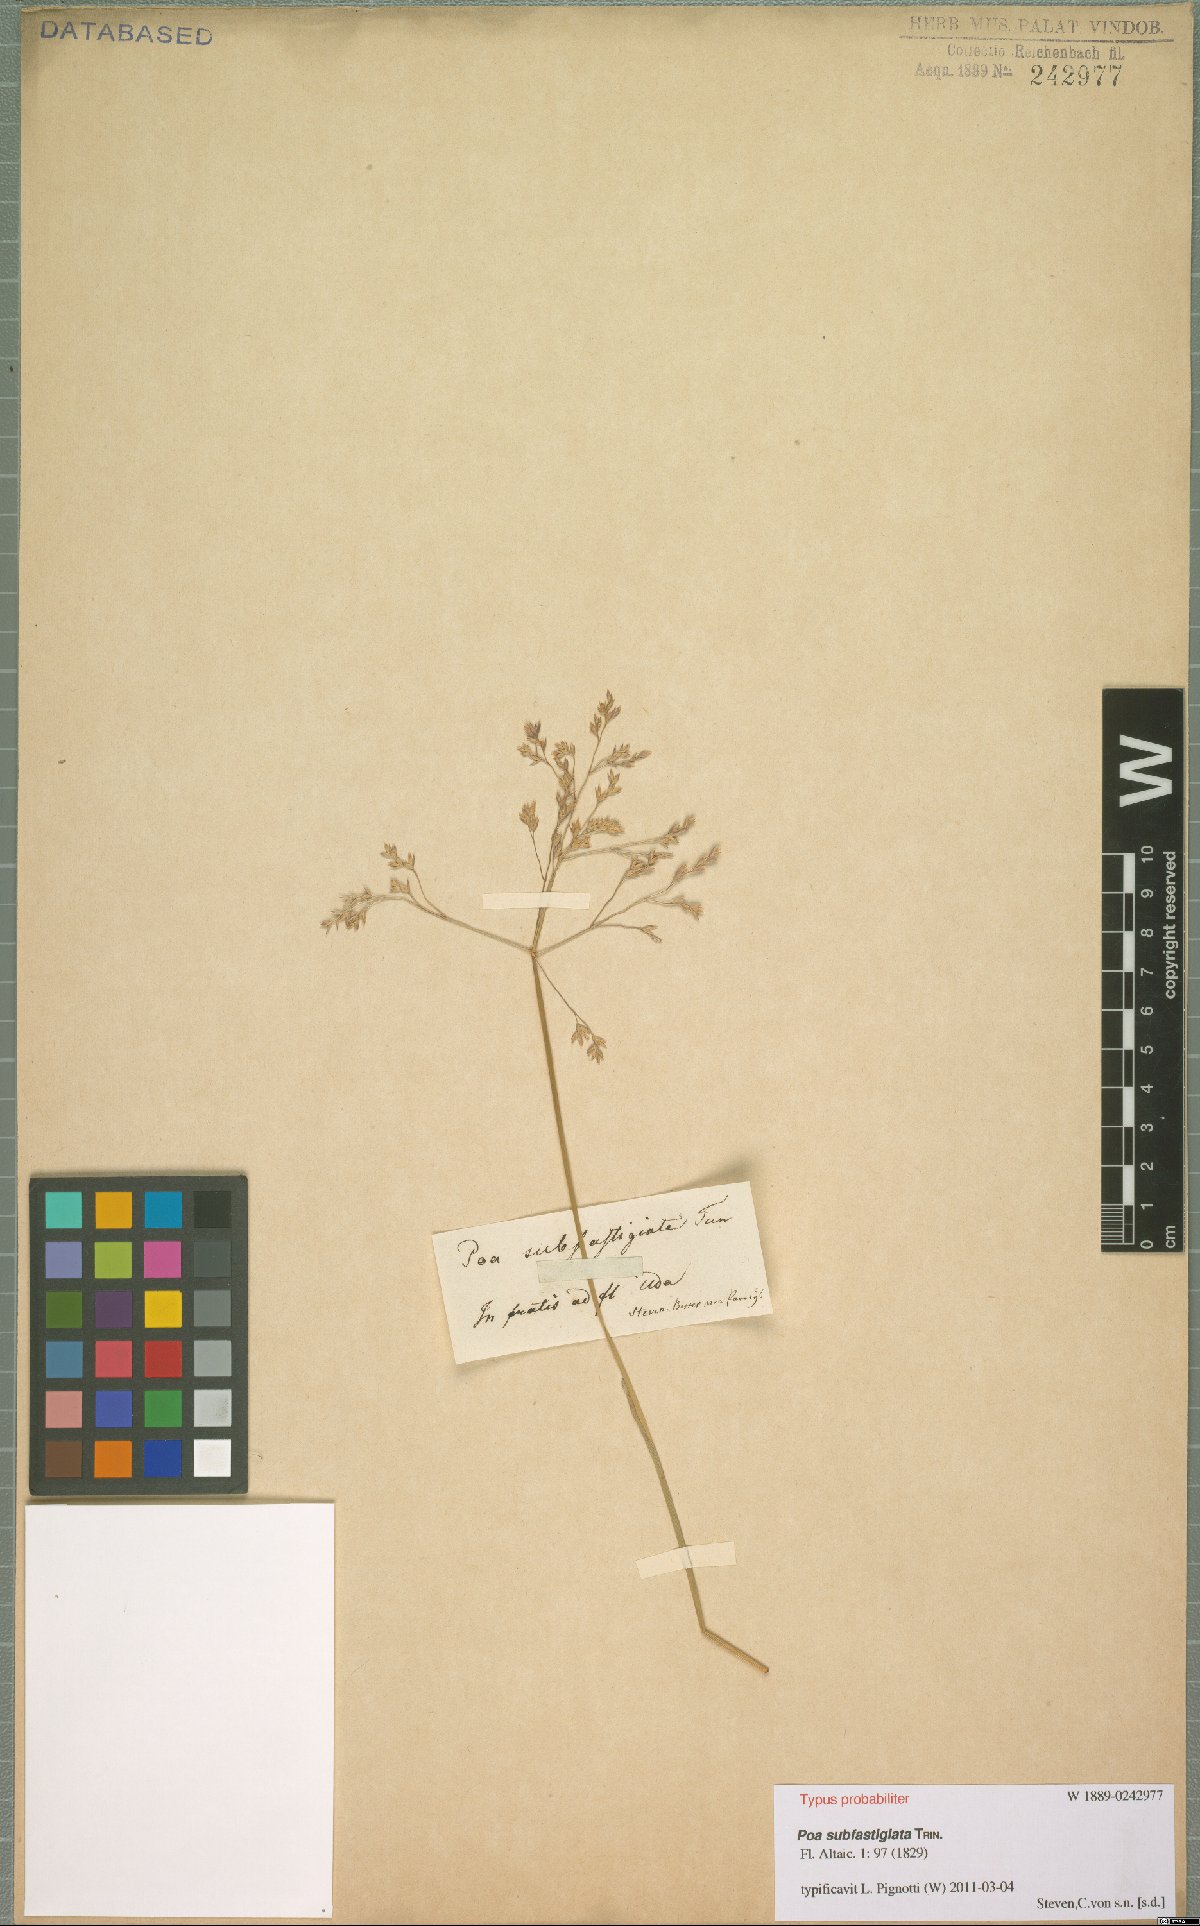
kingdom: Plantae
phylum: Tracheophyta
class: Liliopsida
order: Poales
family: Poaceae
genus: Arctopoa
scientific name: Arctopoa subfastigiata
